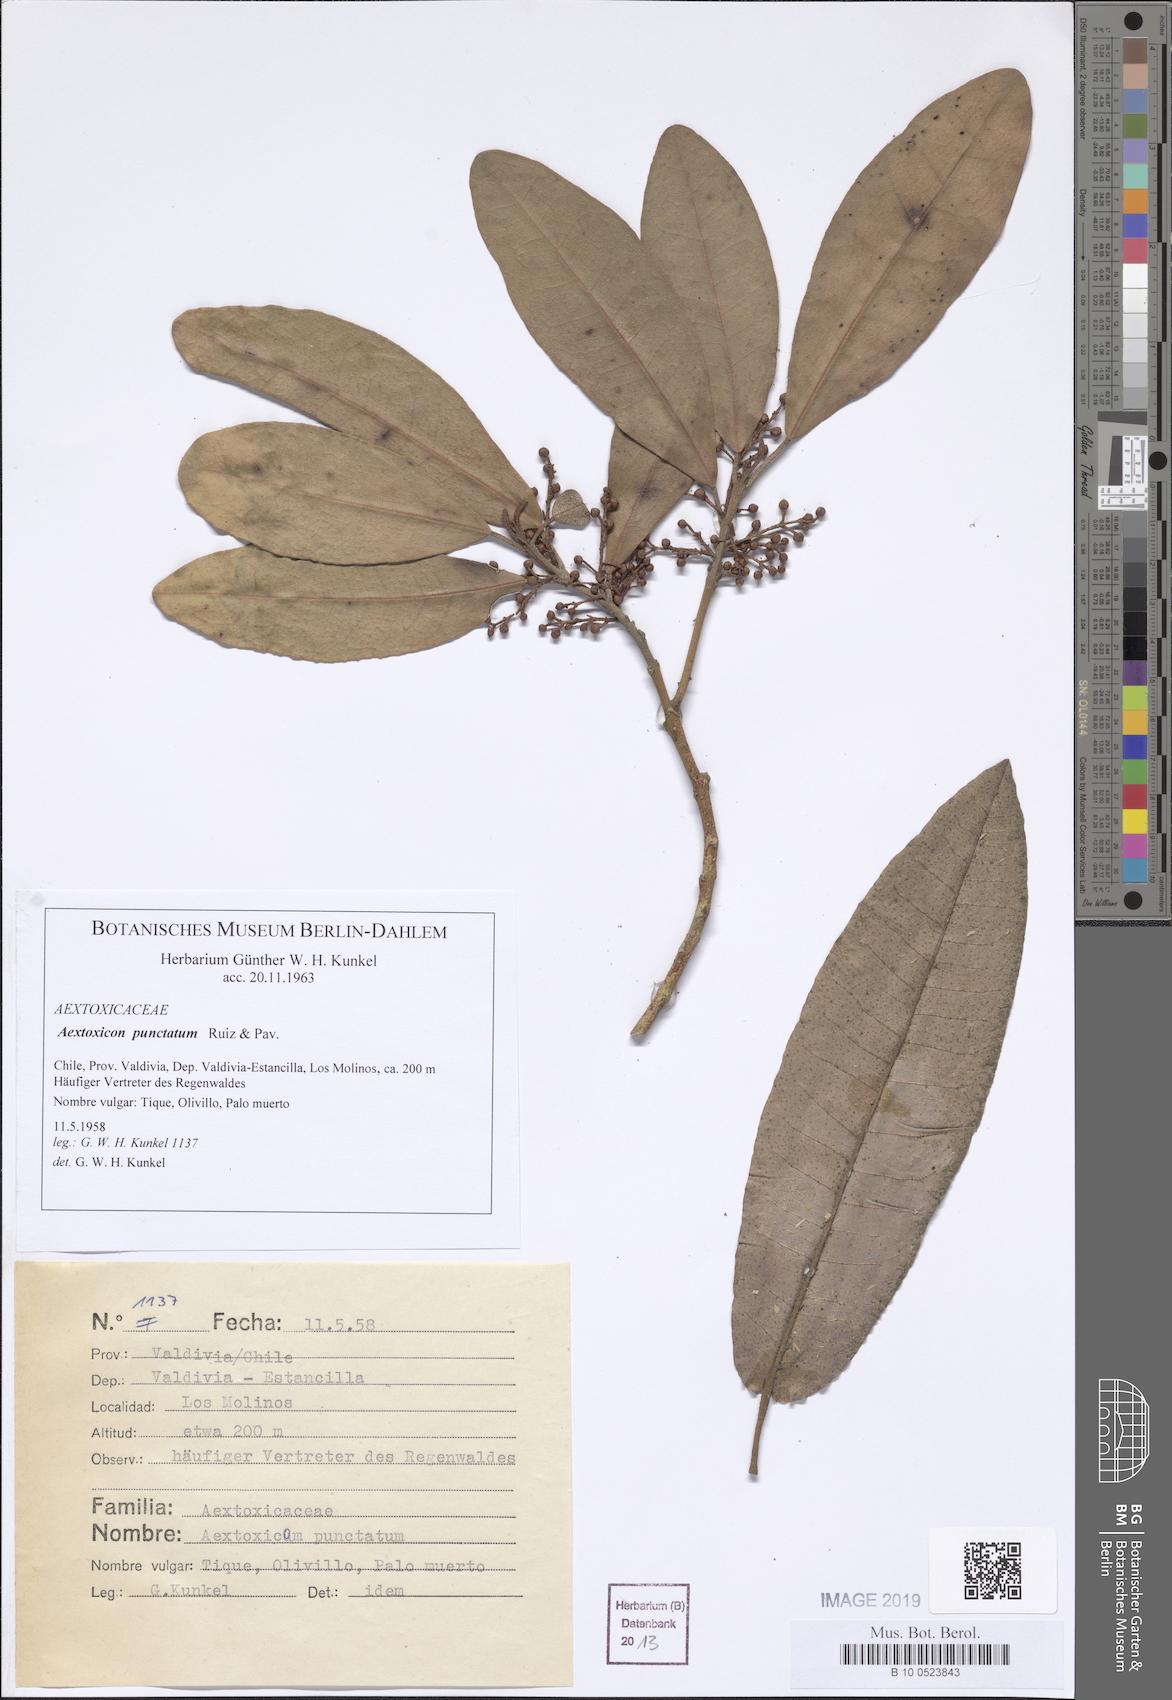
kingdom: Plantae
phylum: Tracheophyta
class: Magnoliopsida
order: Berberidopsidales
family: Aextoxicaceae
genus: Aextoxicon
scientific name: Aextoxicon punctatum
